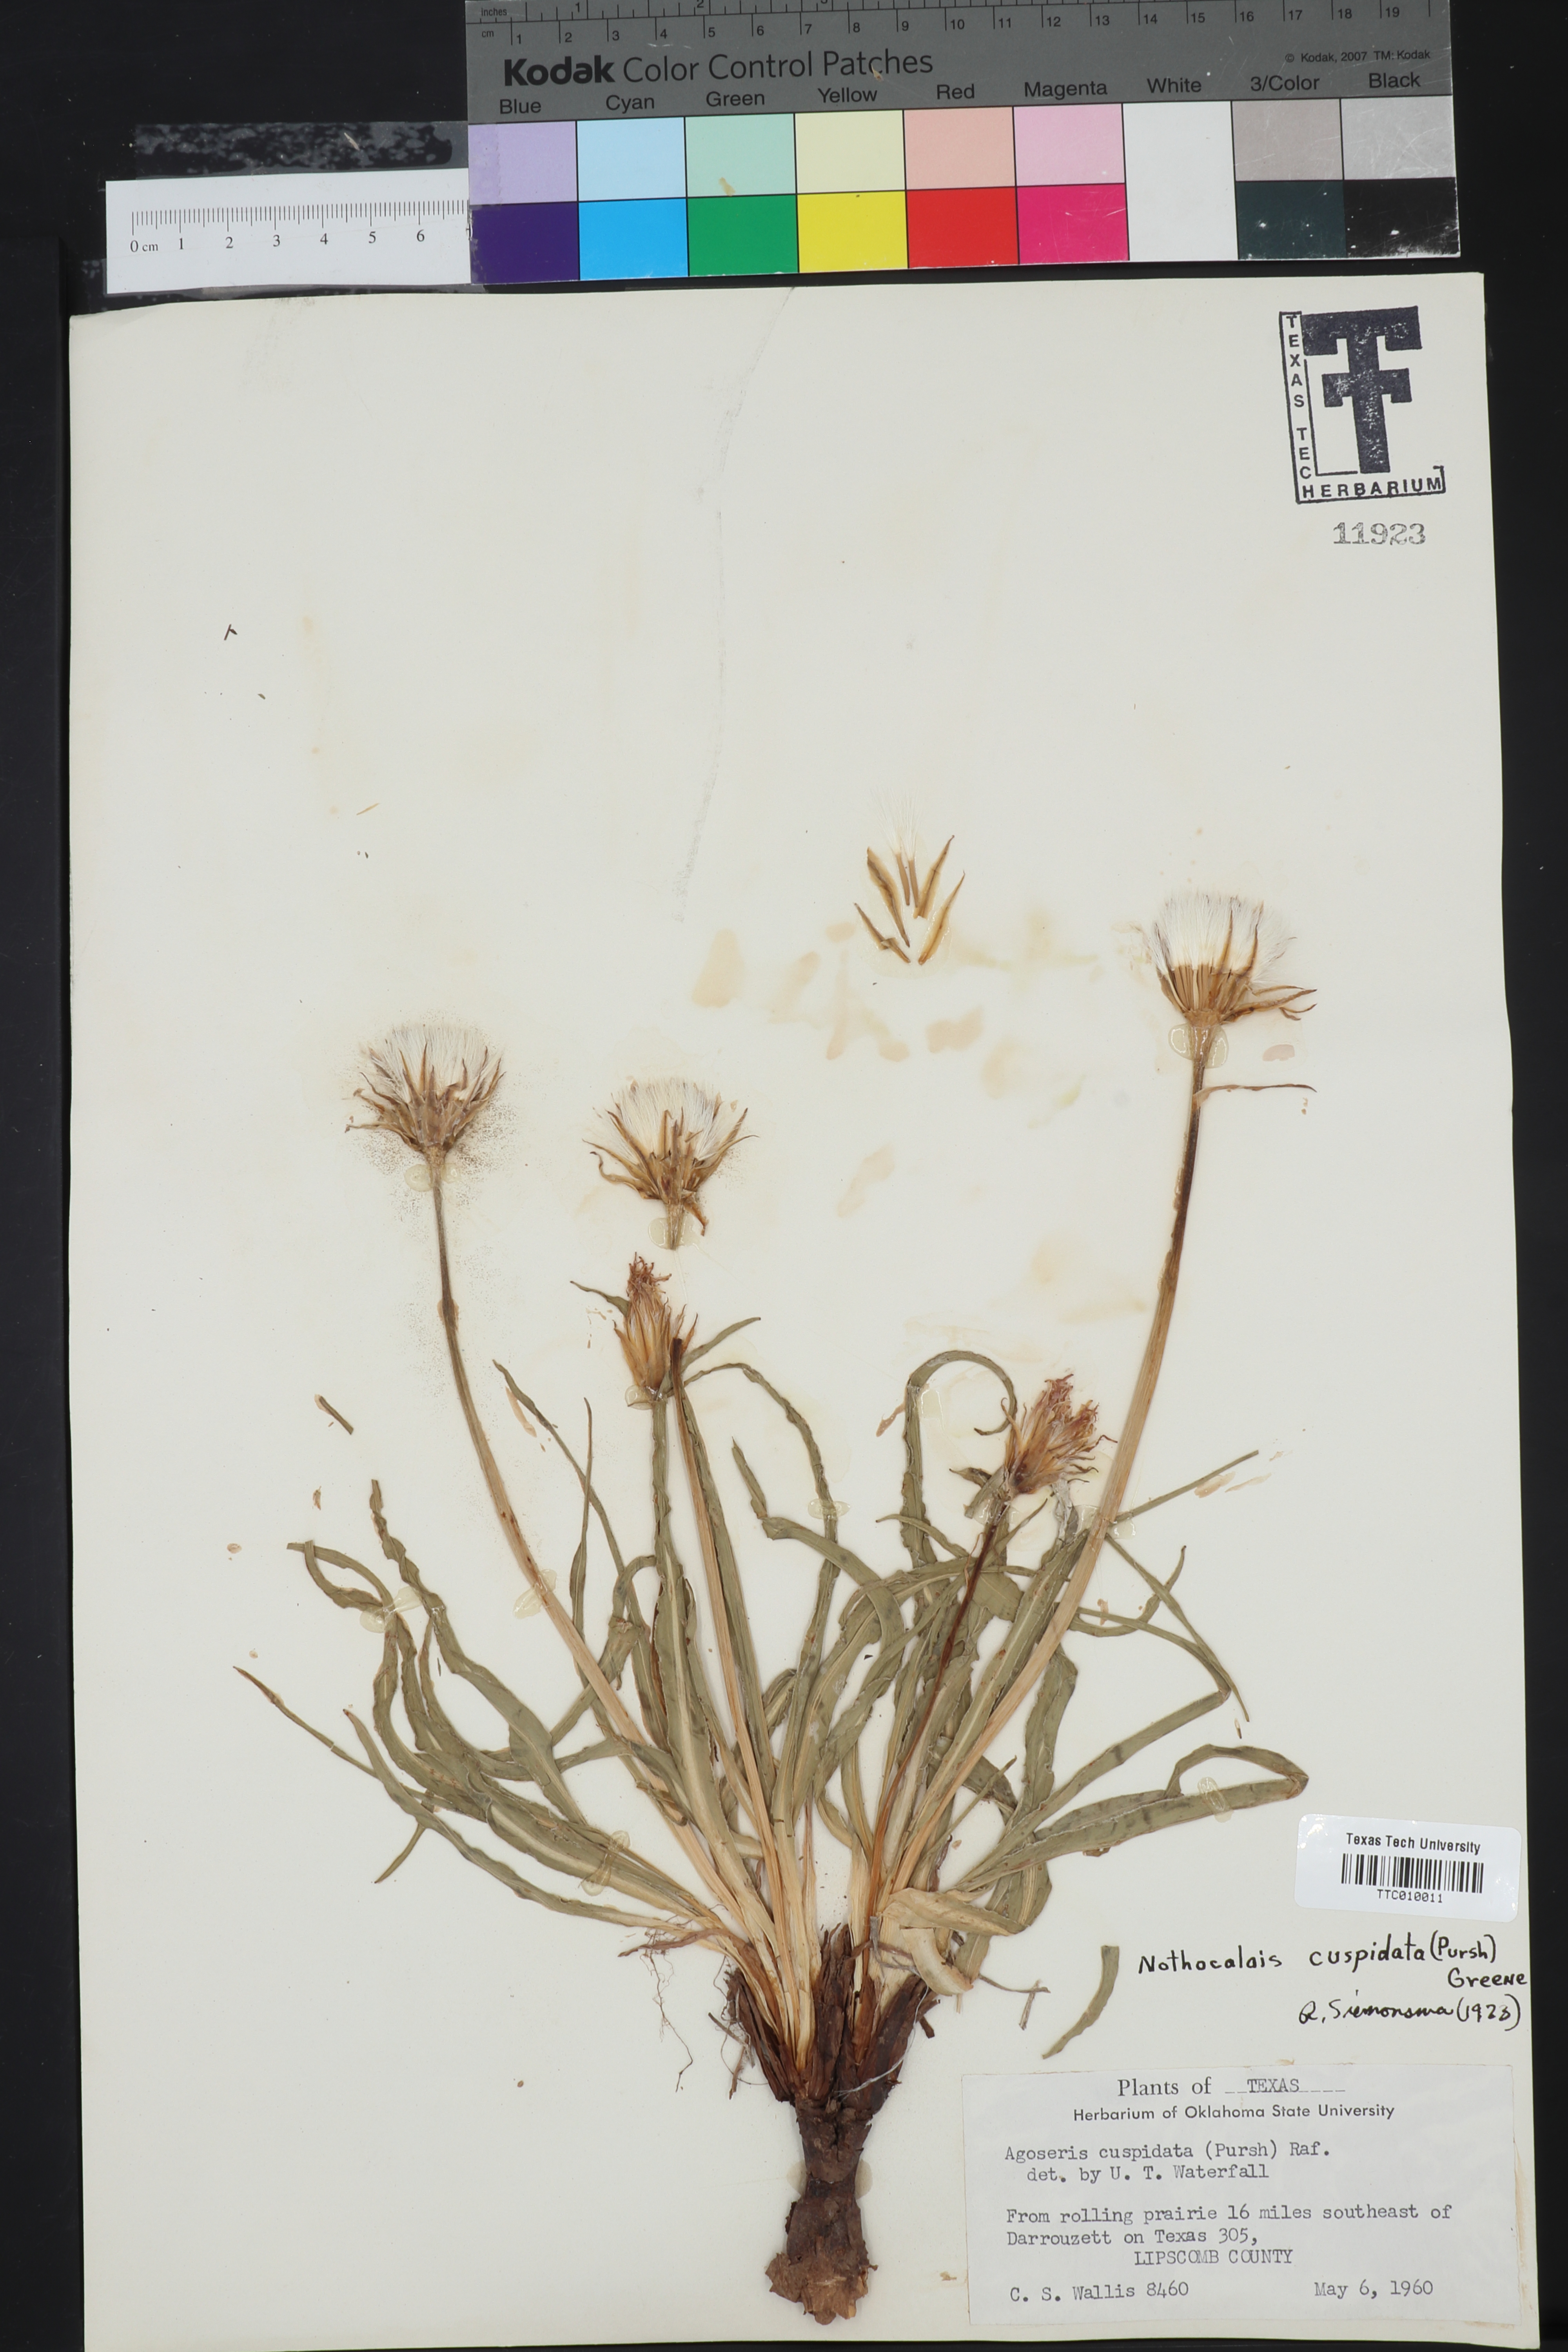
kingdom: Plantae
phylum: Tracheophyta
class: Magnoliopsida
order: Asterales
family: Asteraceae
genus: Microseris
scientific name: Microseris cuspidata
